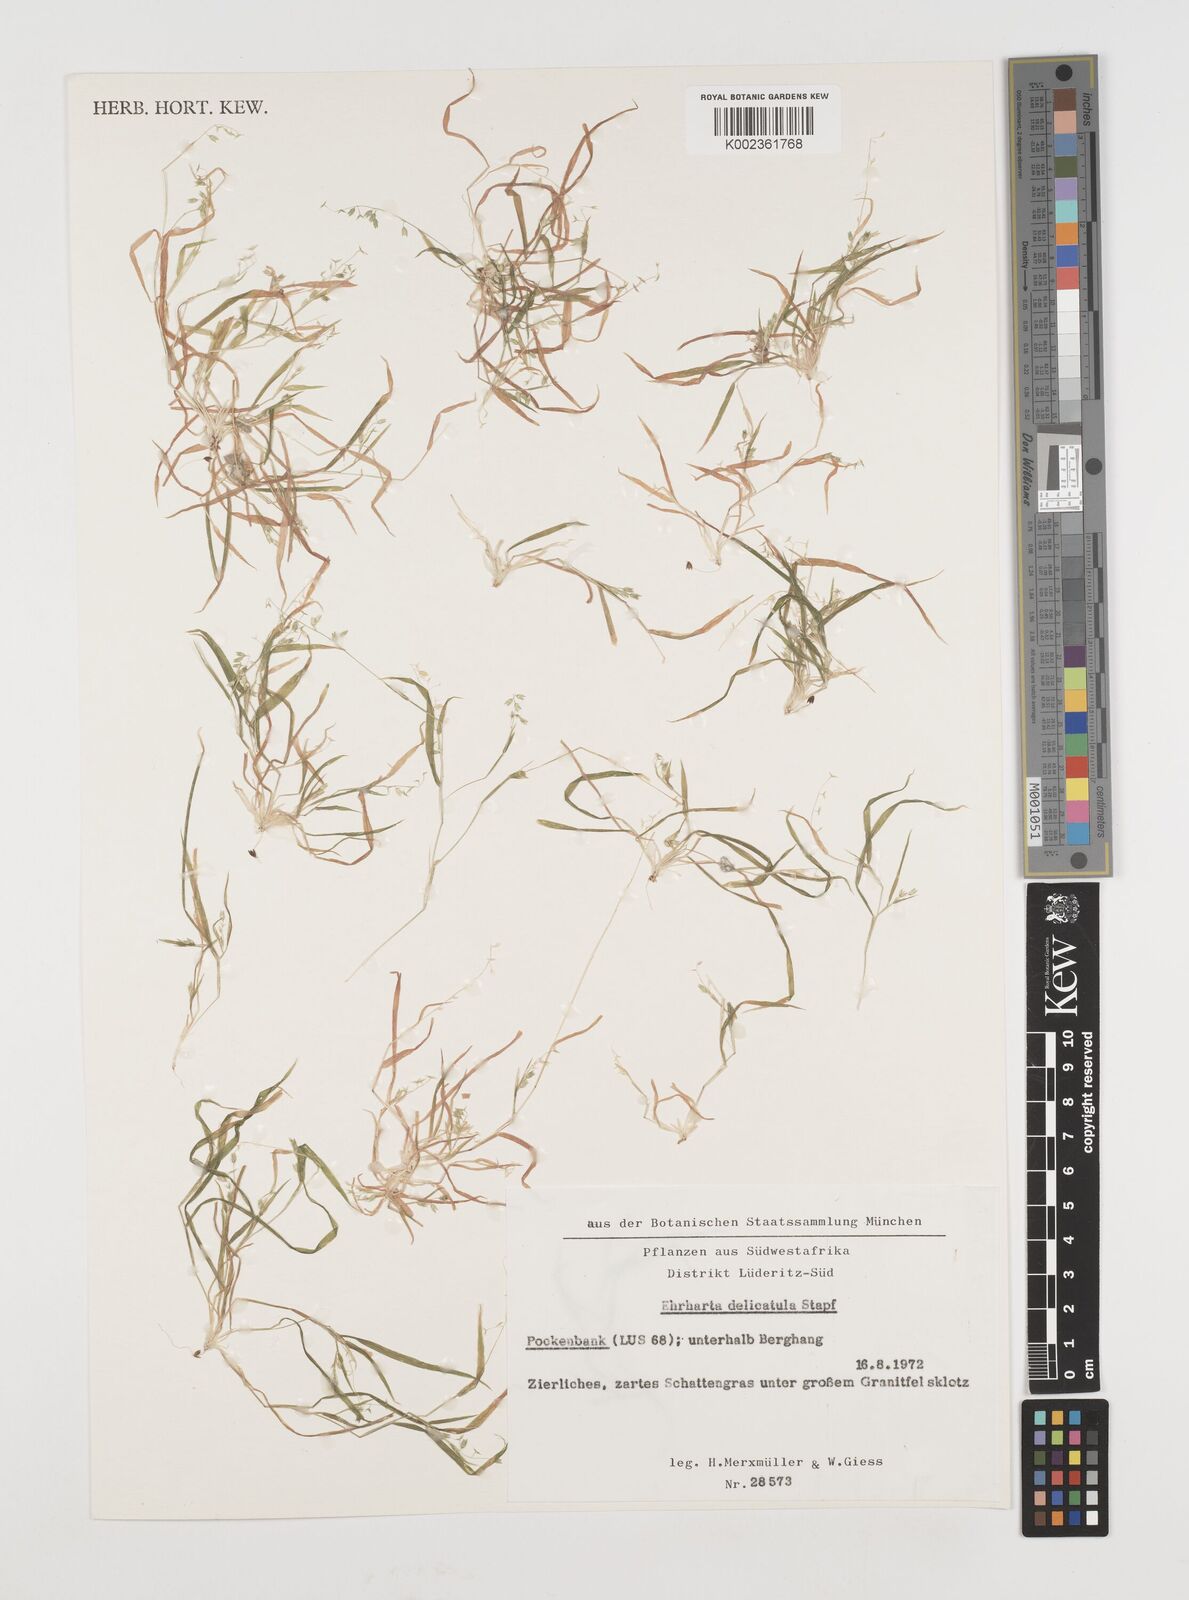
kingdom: Plantae
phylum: Tracheophyta
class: Liliopsida
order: Poales
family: Poaceae
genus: Ehrharta
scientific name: Ehrharta delicatula
